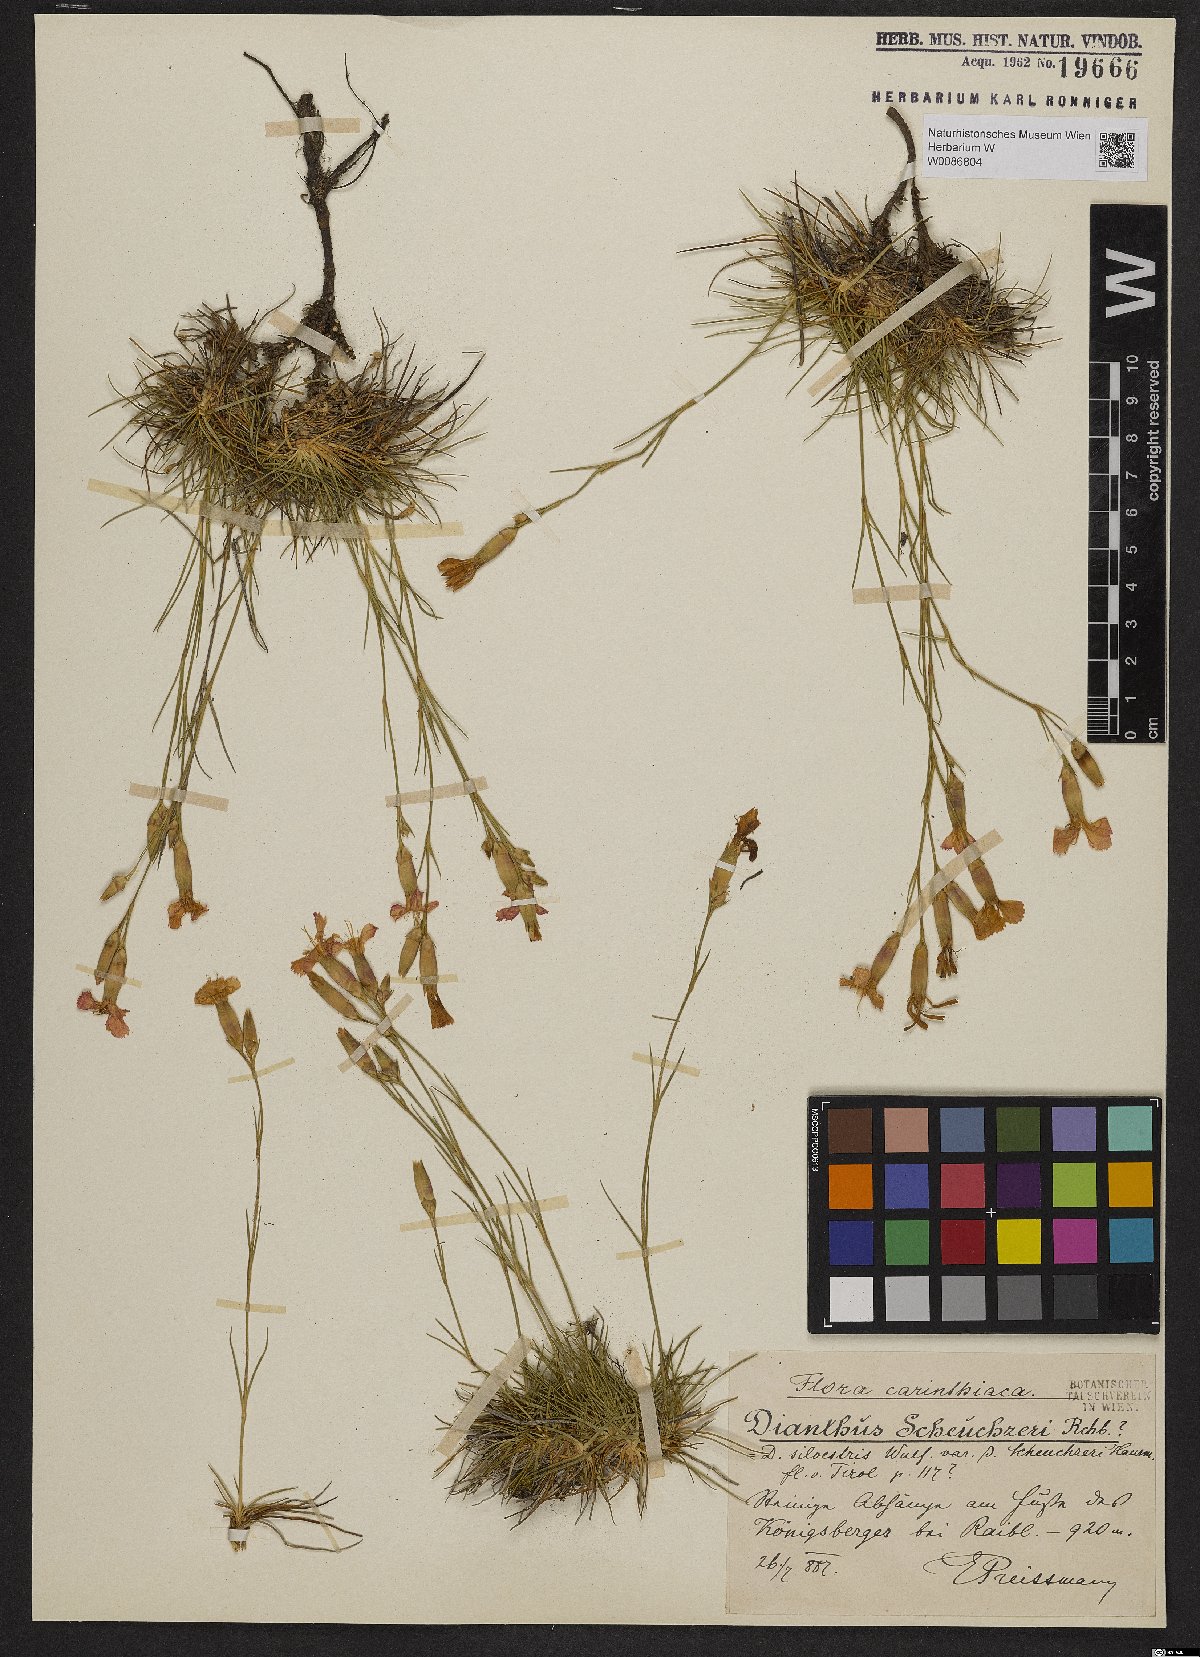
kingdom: Plantae
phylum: Tracheophyta
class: Magnoliopsida
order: Caryophyllales
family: Caryophyllaceae
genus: Dianthus
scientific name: Dianthus sylvestris
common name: Wood pink
